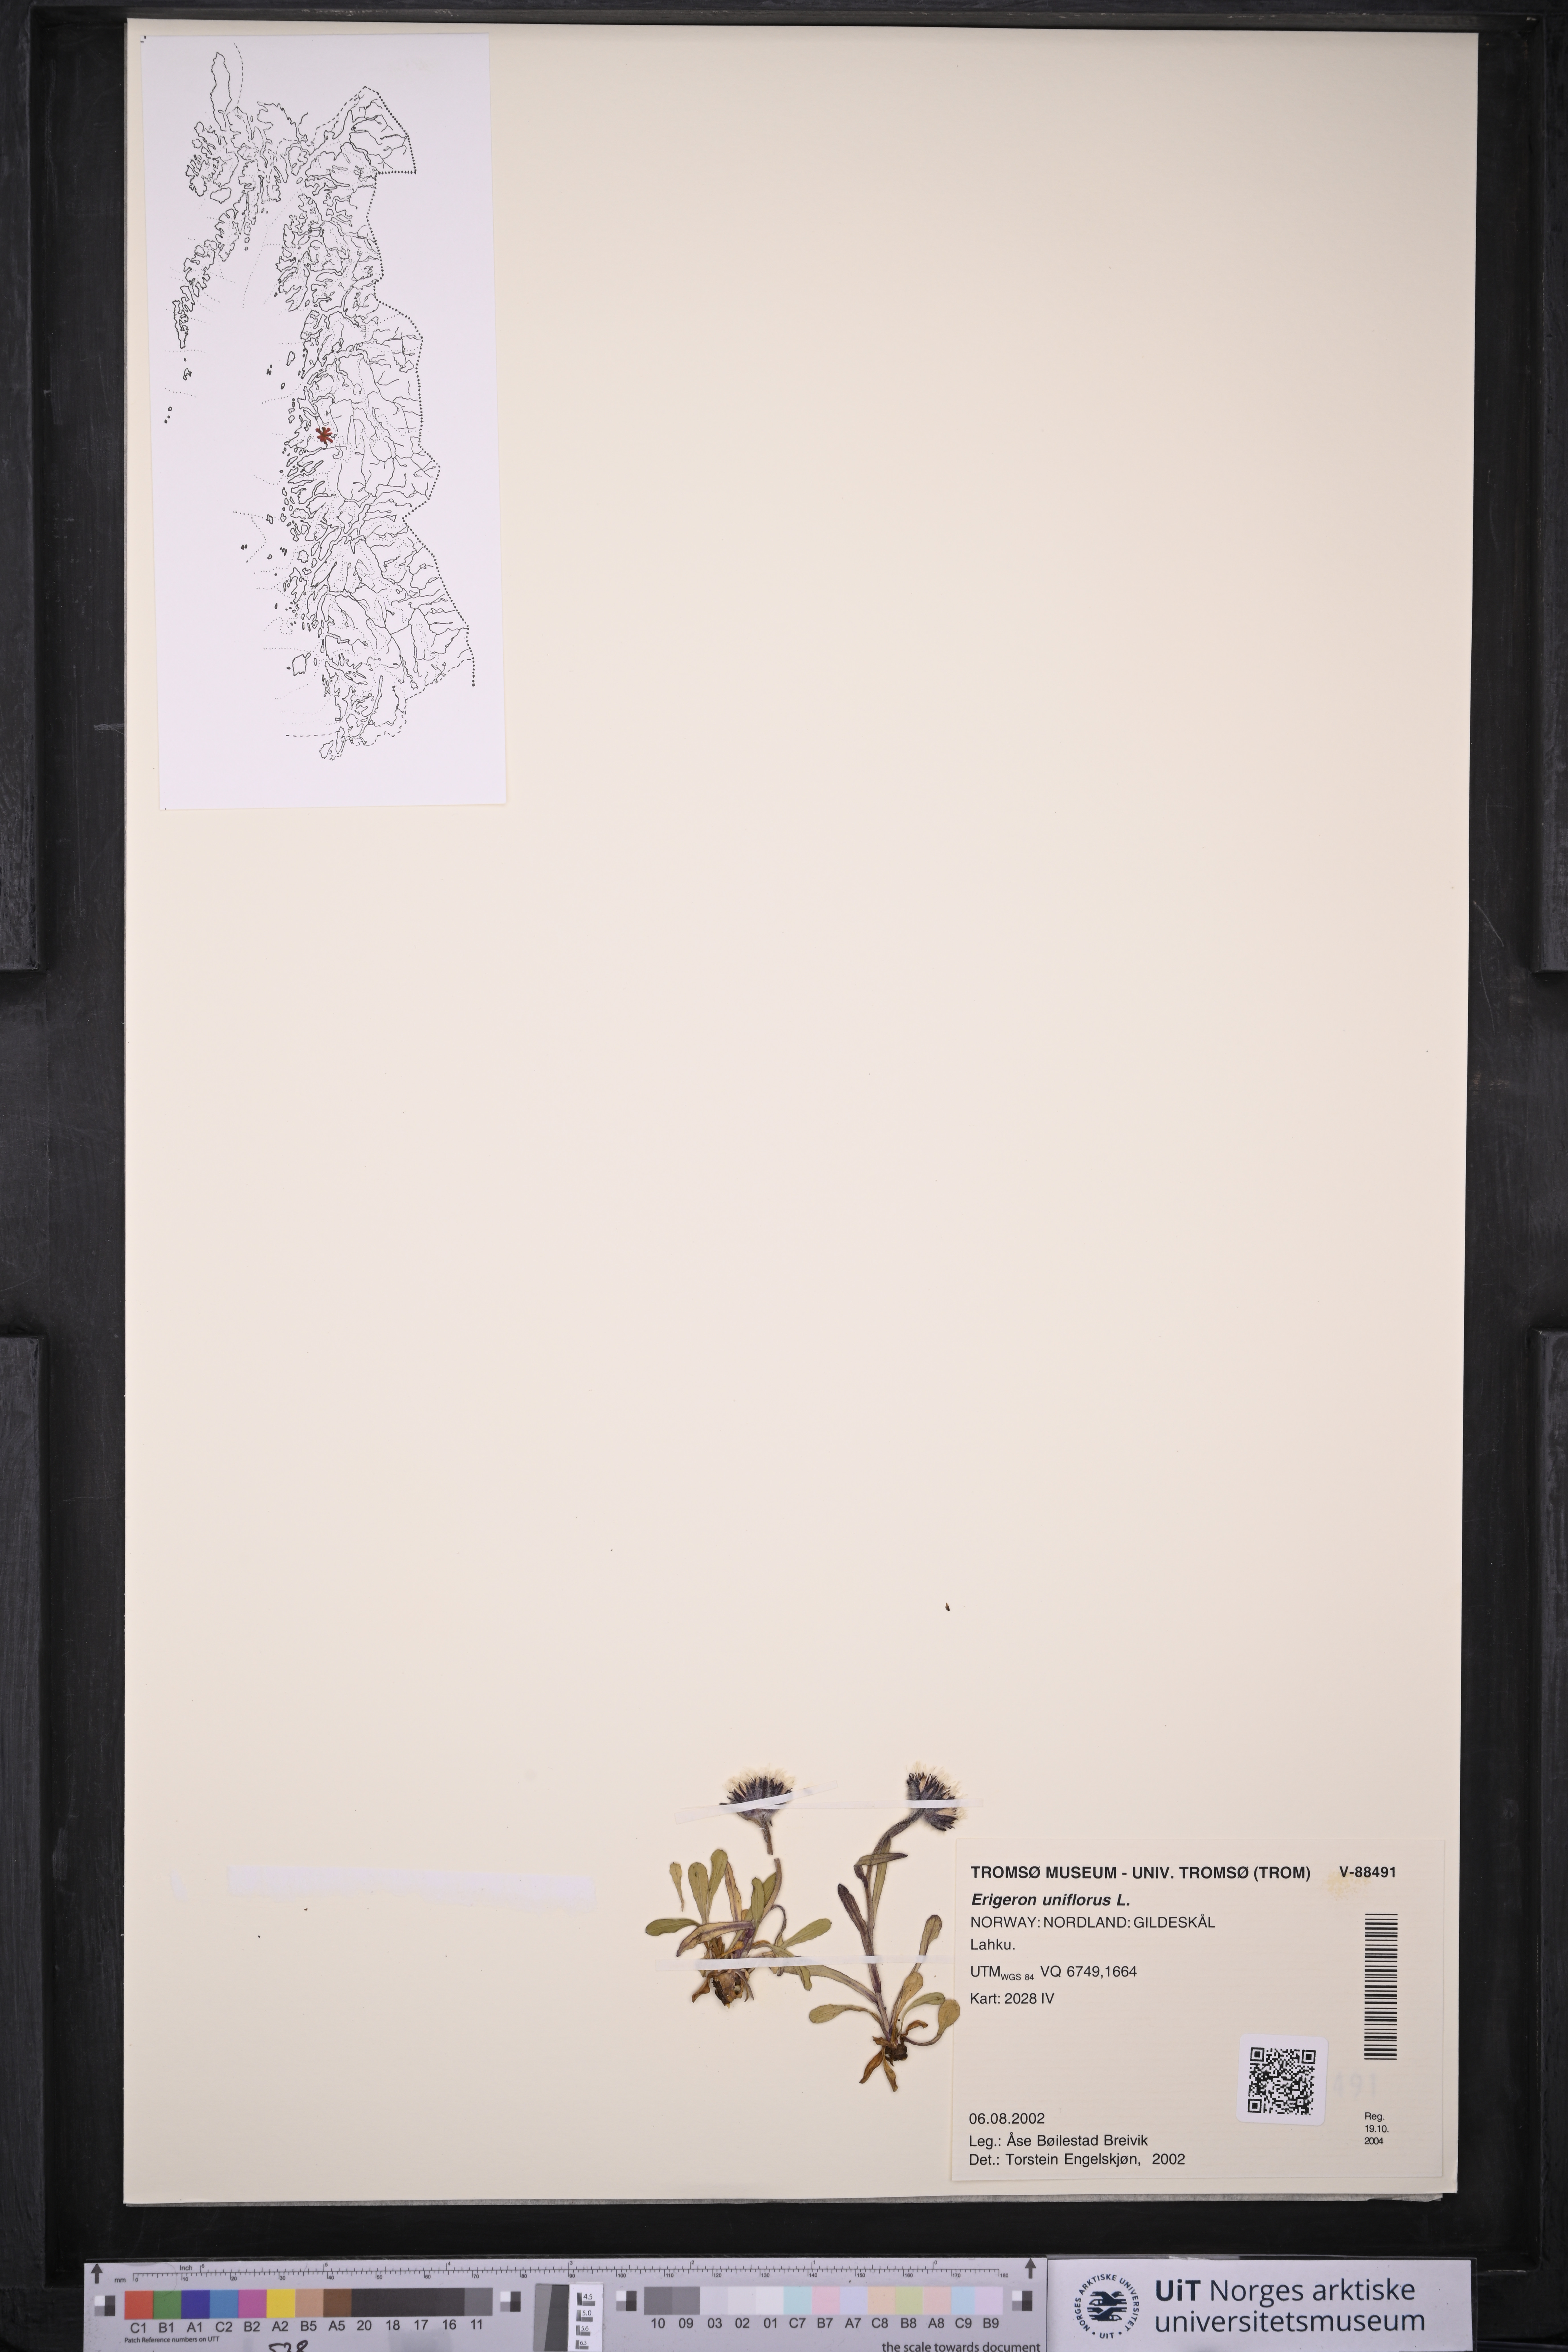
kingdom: Plantae
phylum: Tracheophyta
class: Magnoliopsida
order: Asterales
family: Asteraceae
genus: Erigeron
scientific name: Erigeron uniflorus
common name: Northern daisy
